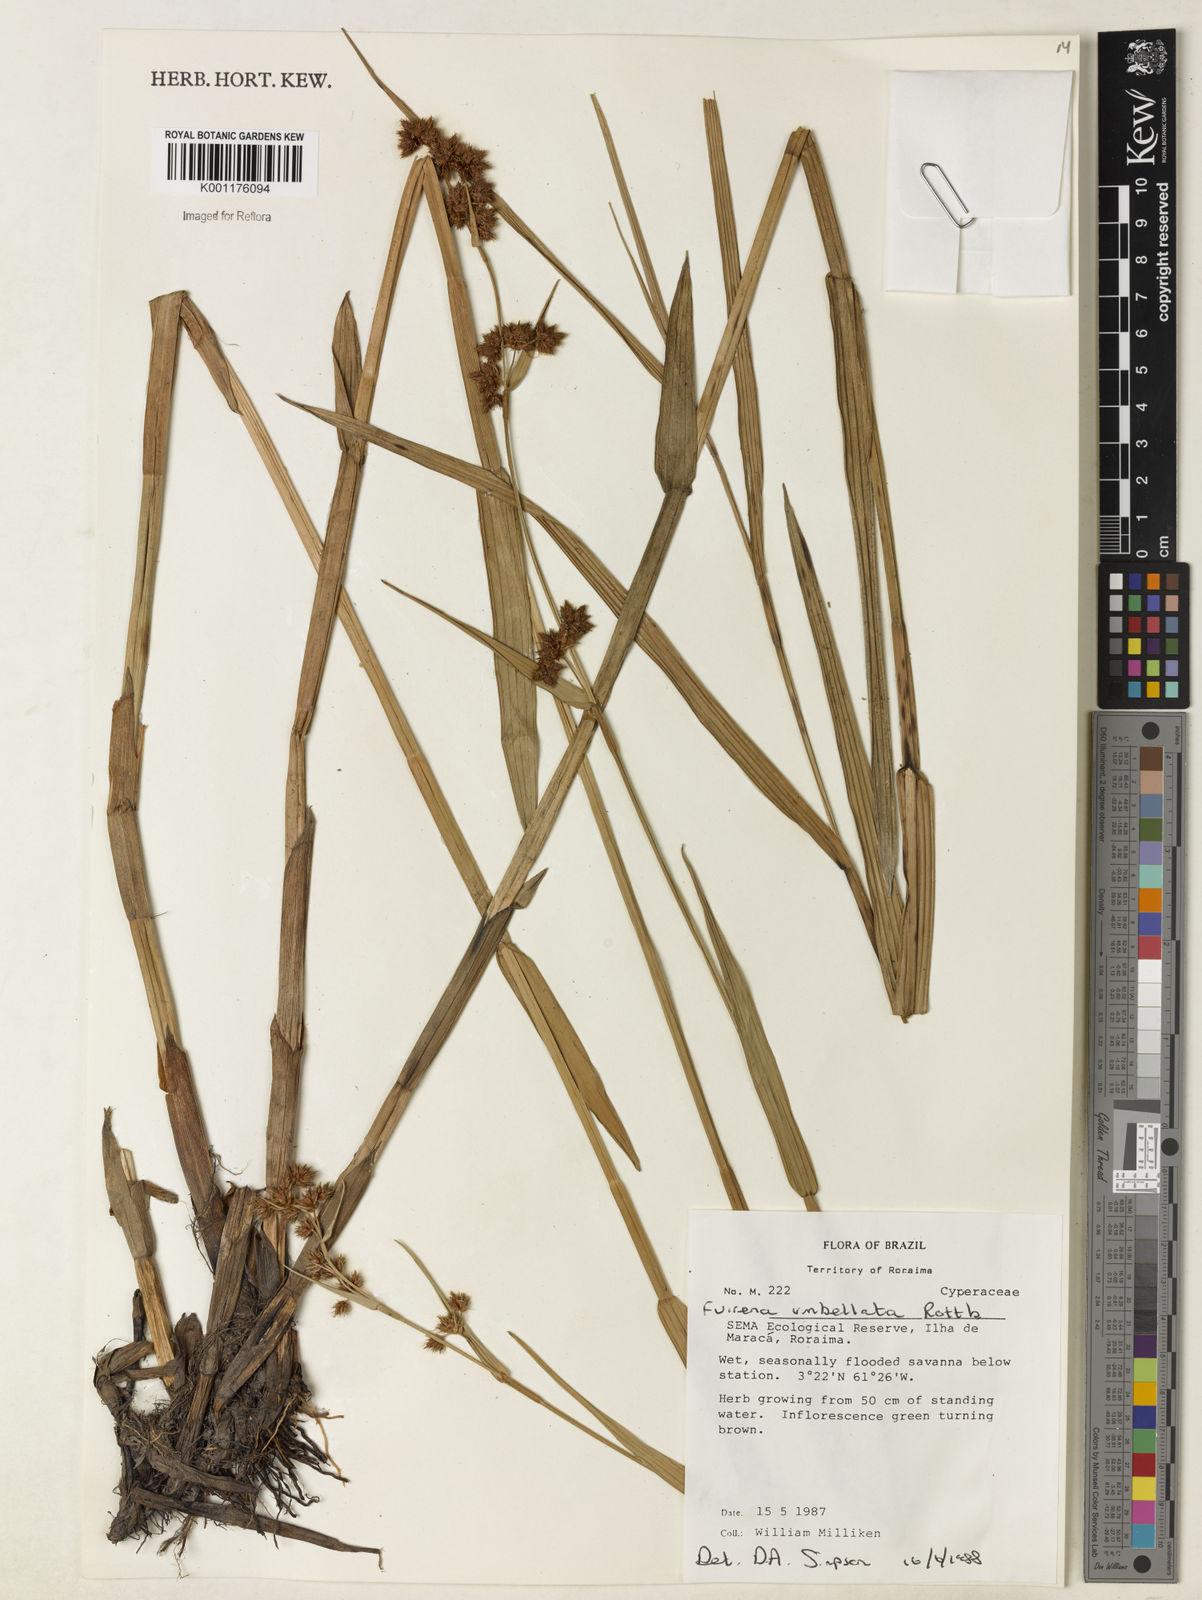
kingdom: Plantae
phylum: Tracheophyta
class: Liliopsida
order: Poales
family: Cyperaceae
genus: Fuirena
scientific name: Fuirena umbellata
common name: Yefen
